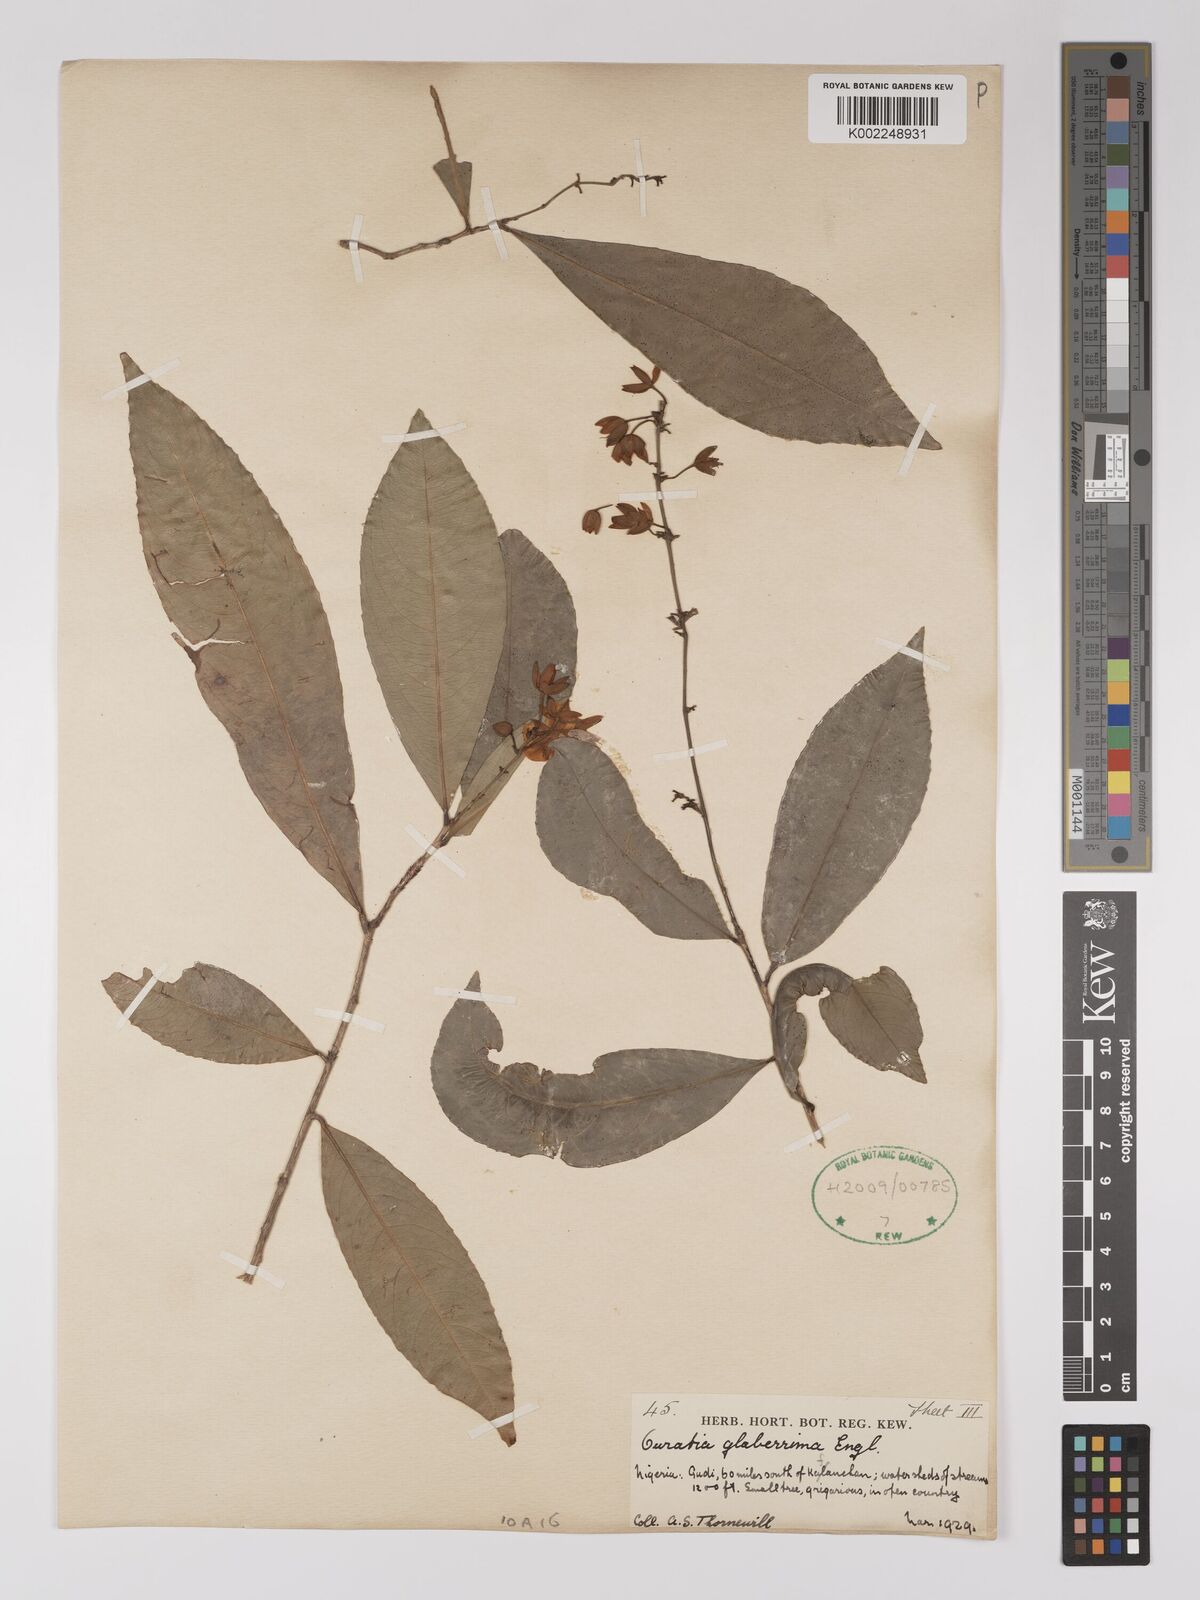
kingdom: Plantae
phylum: Tracheophyta
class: Magnoliopsida
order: Malpighiales
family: Ochnaceae
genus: Campylospermum
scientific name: Campylospermum glaberrimum
